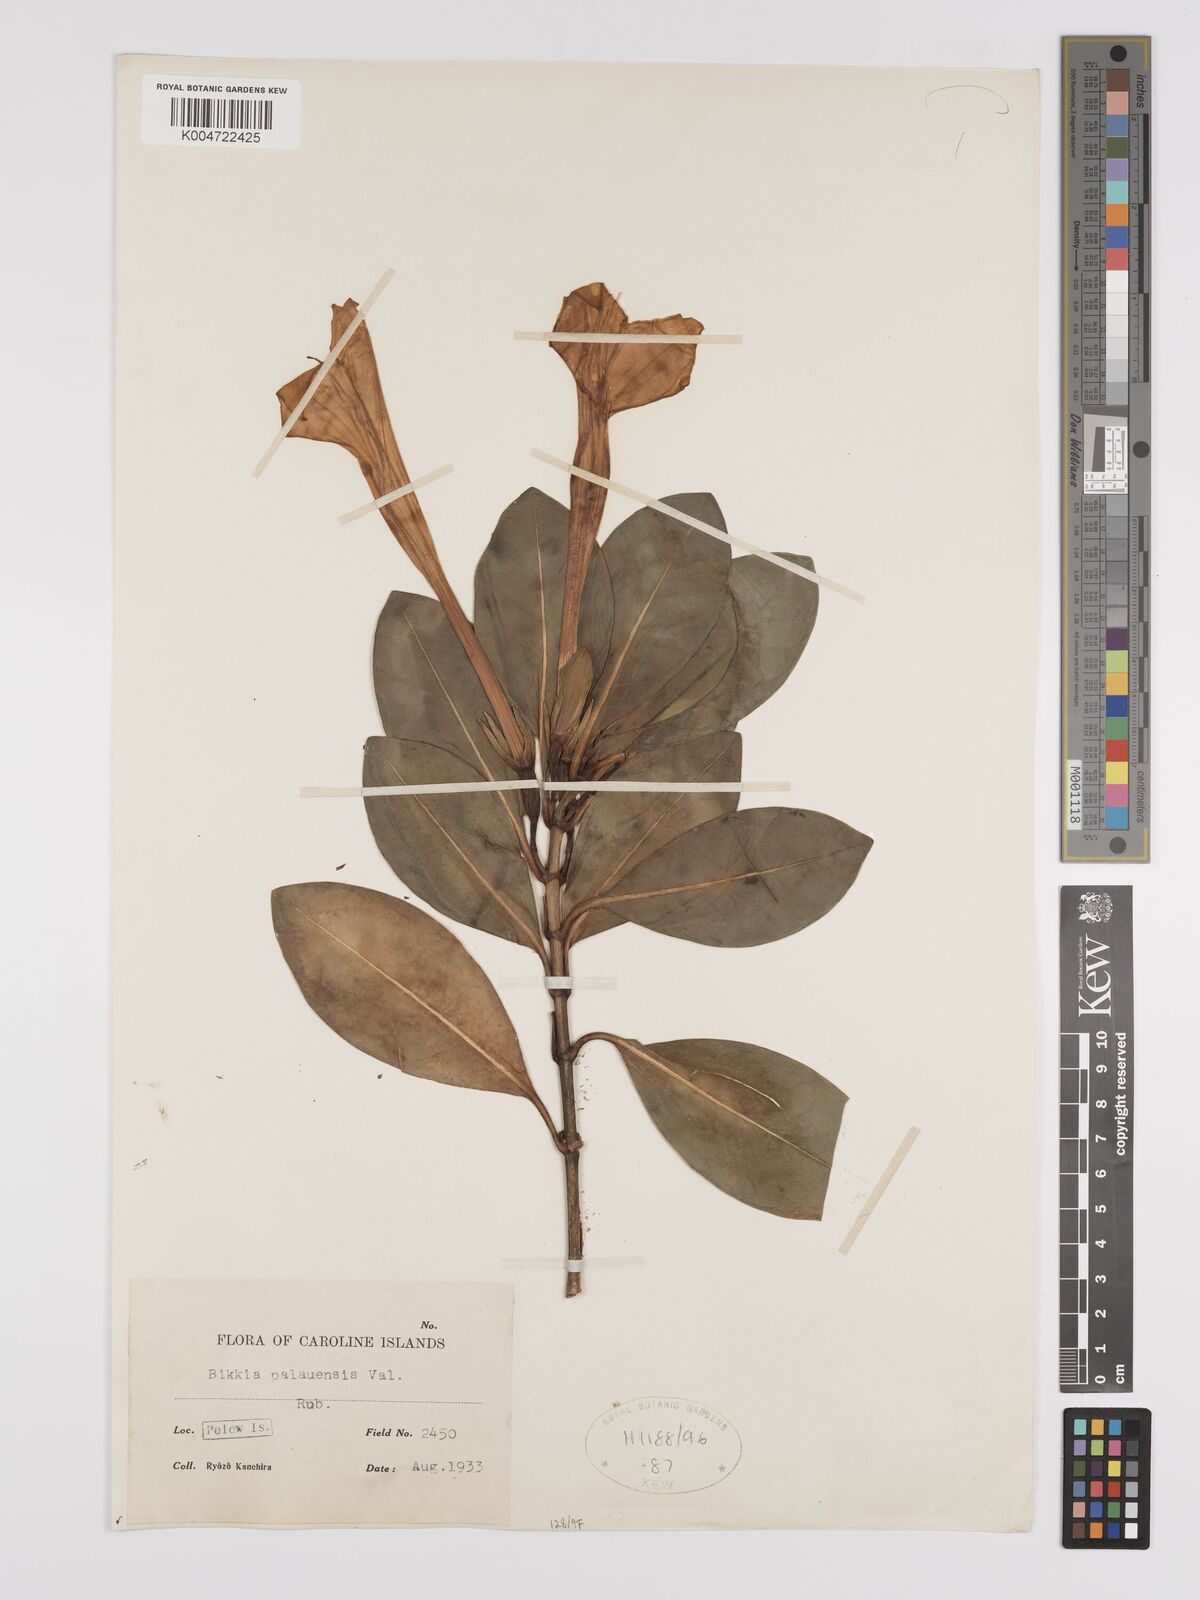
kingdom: Plantae
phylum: Tracheophyta
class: Magnoliopsida
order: Gentianales
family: Rubiaceae
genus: Bikkia
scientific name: Bikkia palauensis
